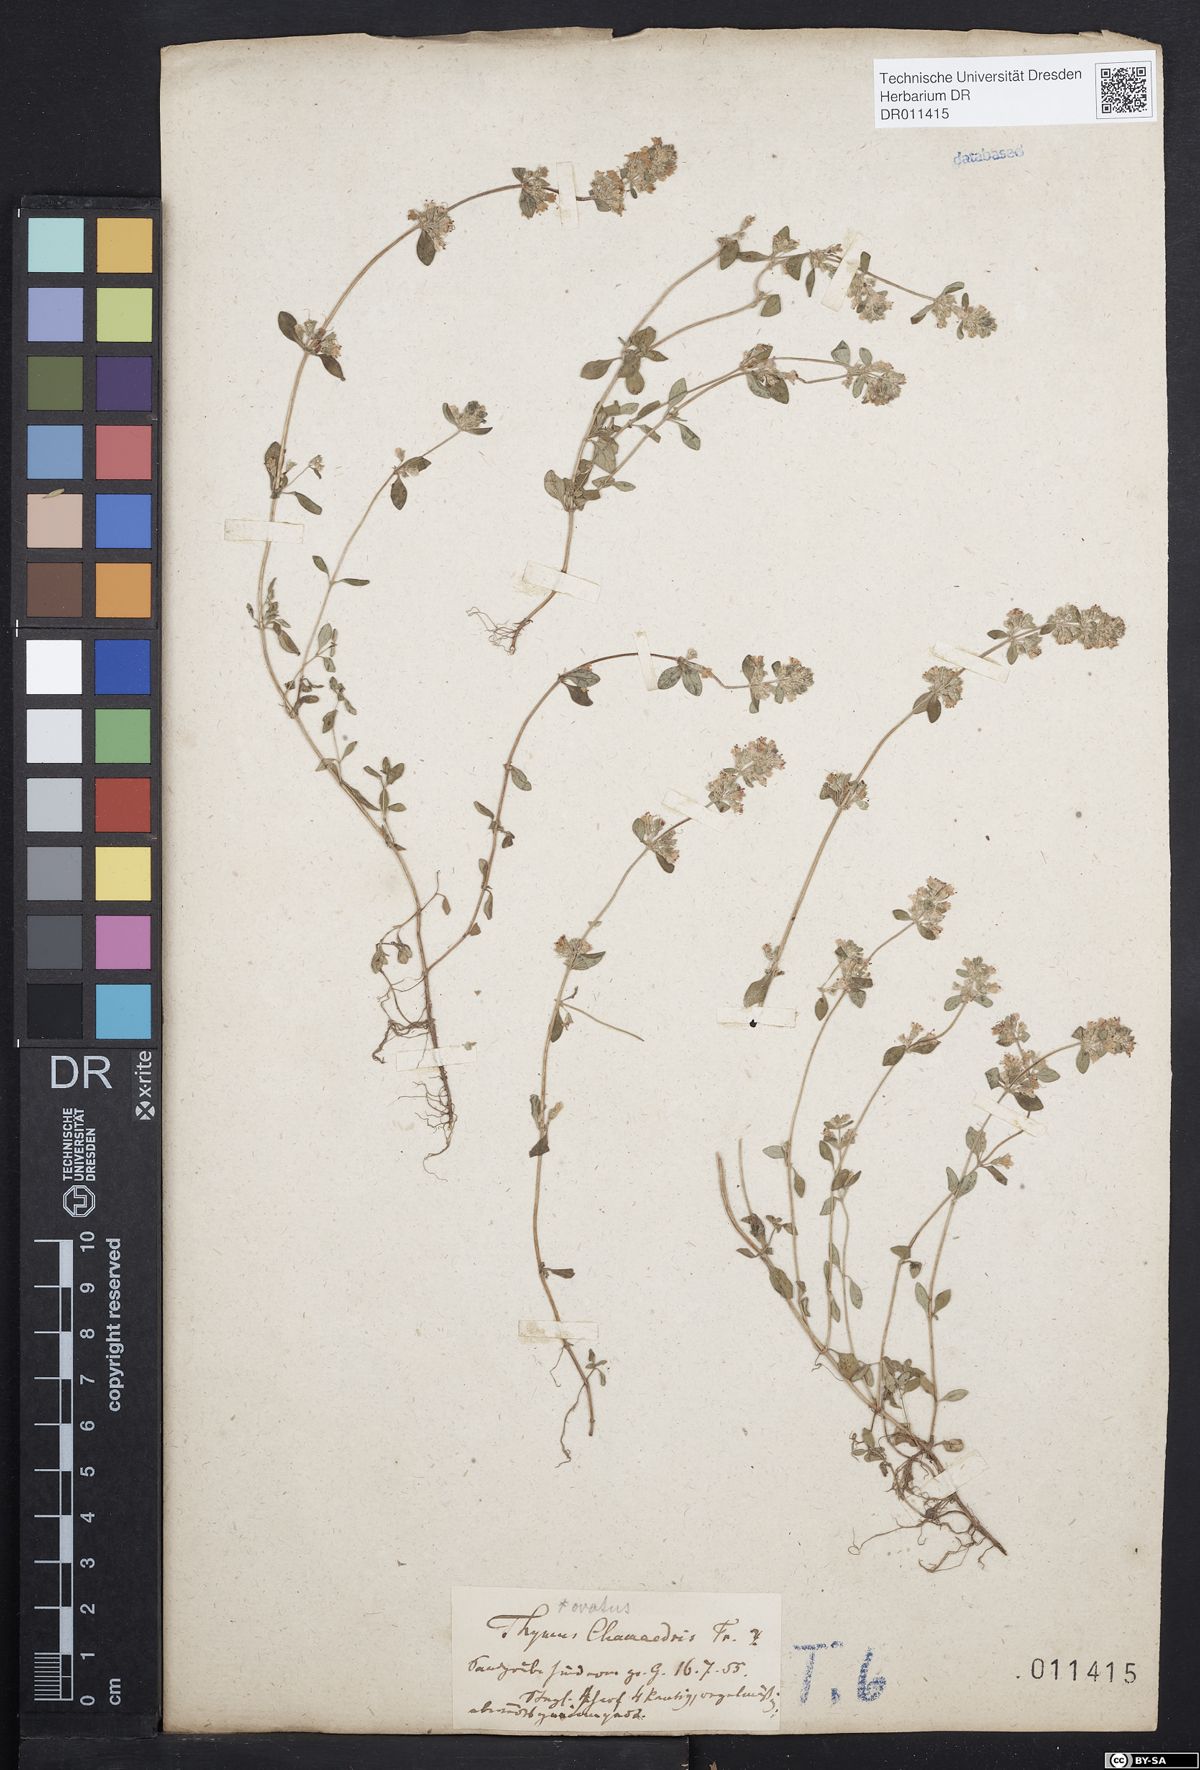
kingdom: Plantae
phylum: Tracheophyta
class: Magnoliopsida
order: Lamiales
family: Lamiaceae
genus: Thymus
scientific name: Thymus pulegioides
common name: Large thyme
